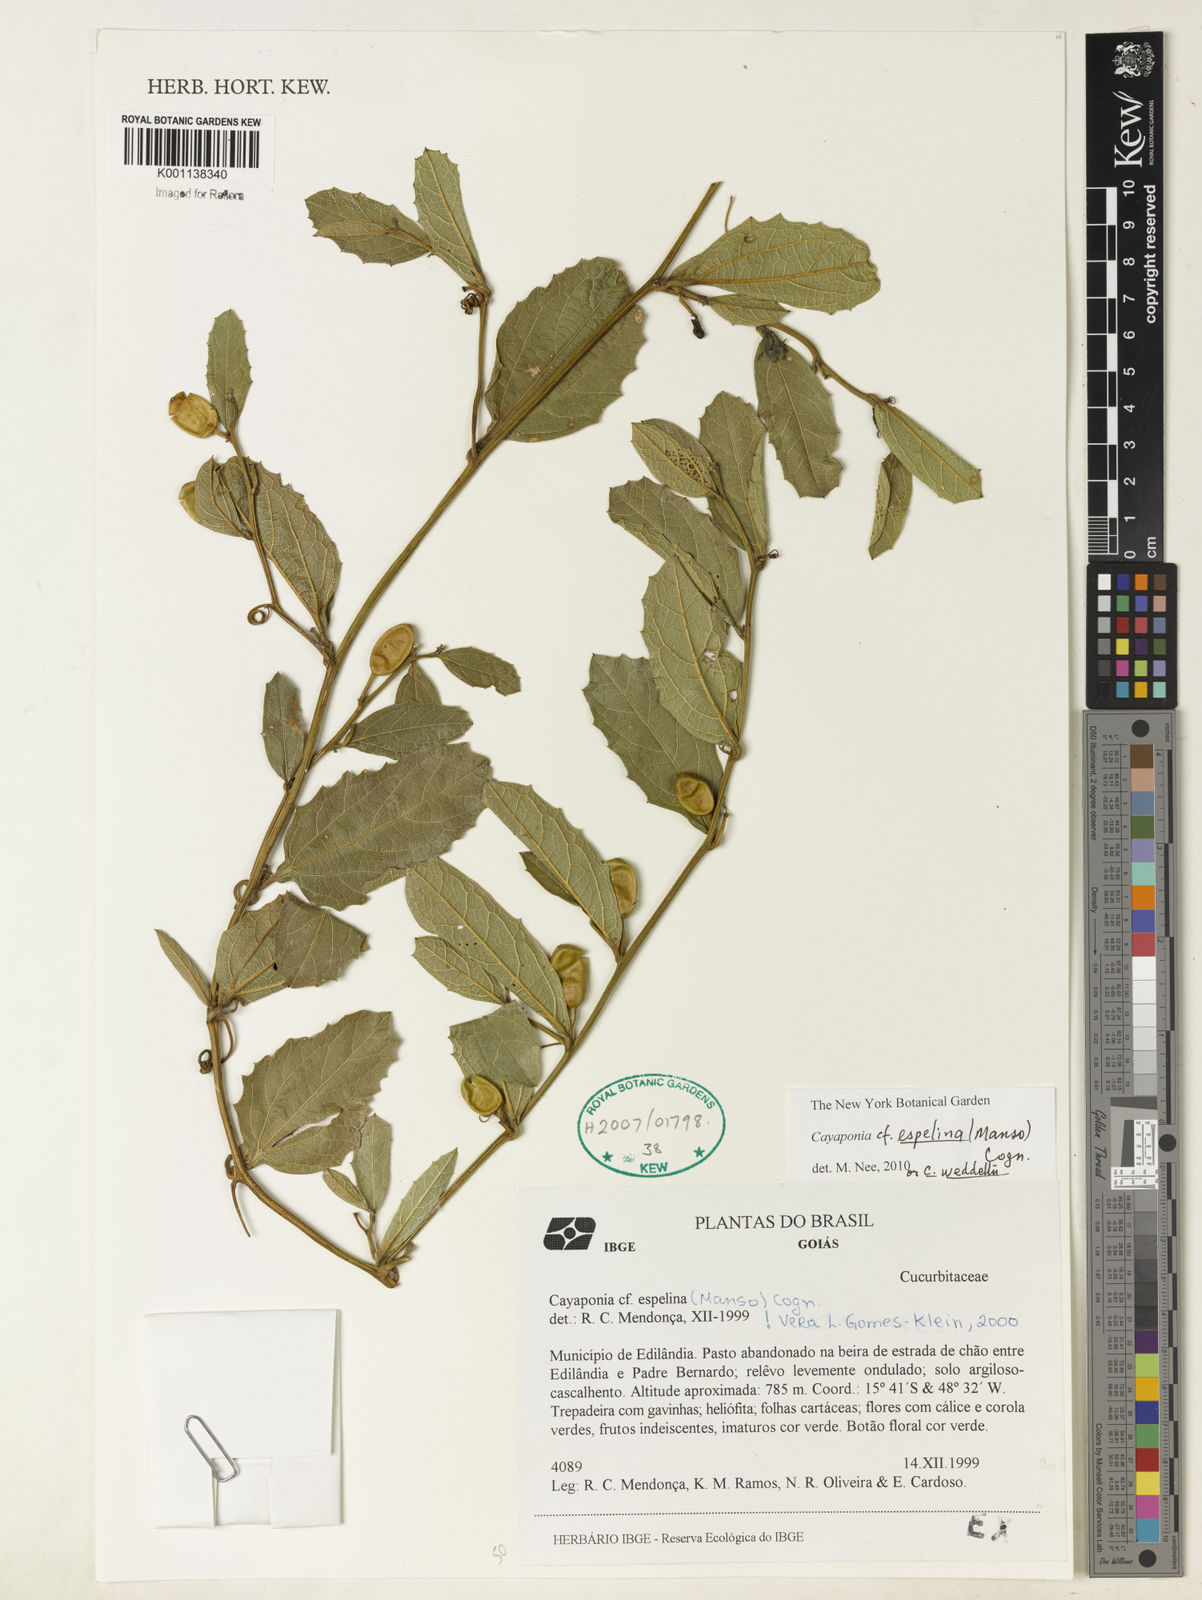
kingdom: Plantae
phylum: Tracheophyta
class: Magnoliopsida
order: Cucurbitales
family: Cucurbitaceae
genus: Cayaponia
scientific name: Cayaponia espelina
